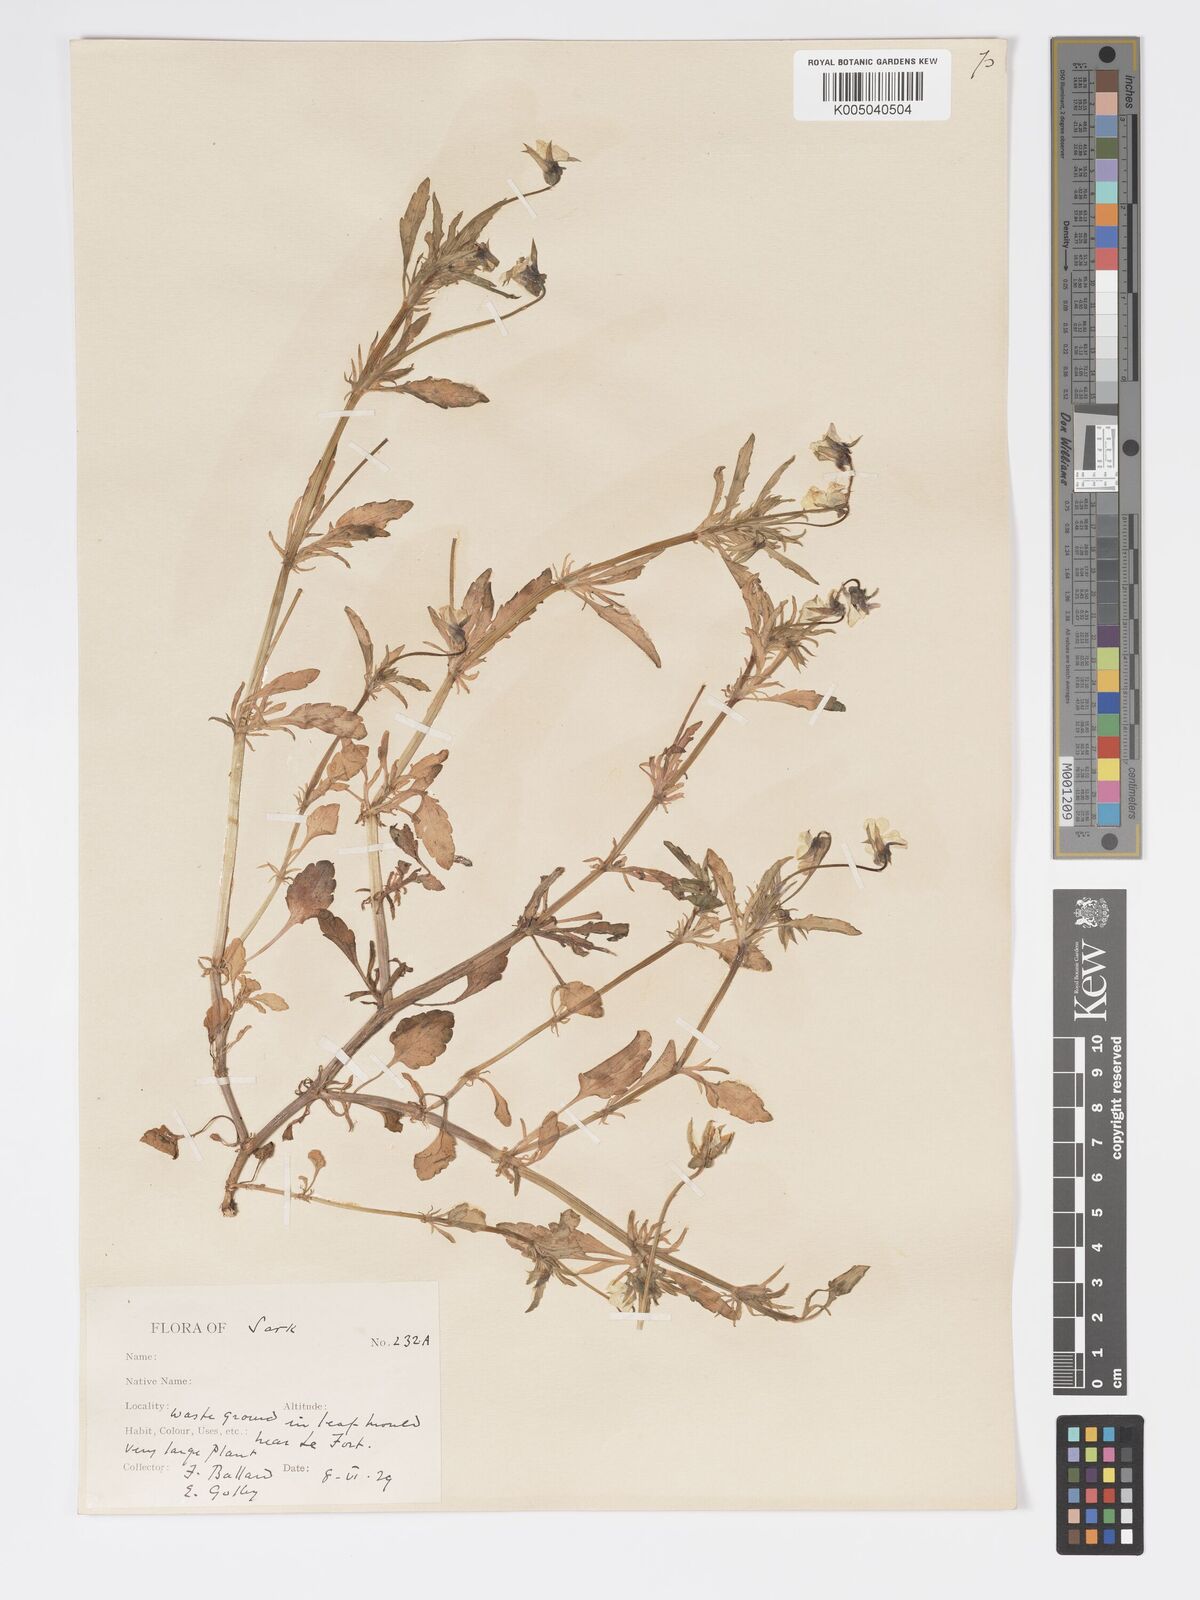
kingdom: Plantae
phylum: Tracheophyta
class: Magnoliopsida
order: Malpighiales
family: Violaceae
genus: Viola
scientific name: Viola arvensis
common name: Field pansy
